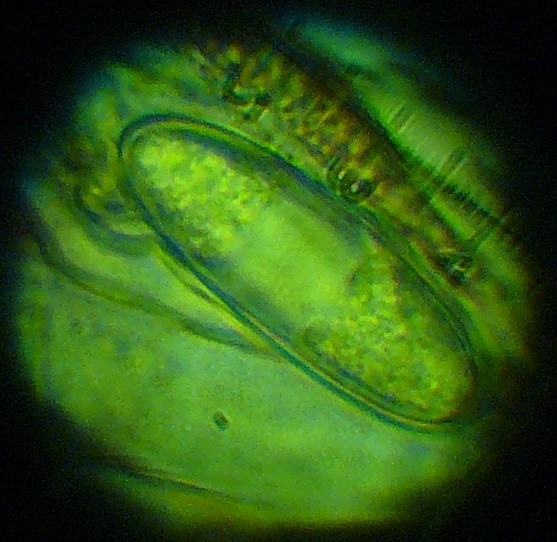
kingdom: Fungi
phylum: Ascomycota
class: Pezizomycetes
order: Pezizales
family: Sarcoscyphaceae
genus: Sarcoscypha
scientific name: Sarcoscypha austriaca
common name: krølhåret pragtbæger
